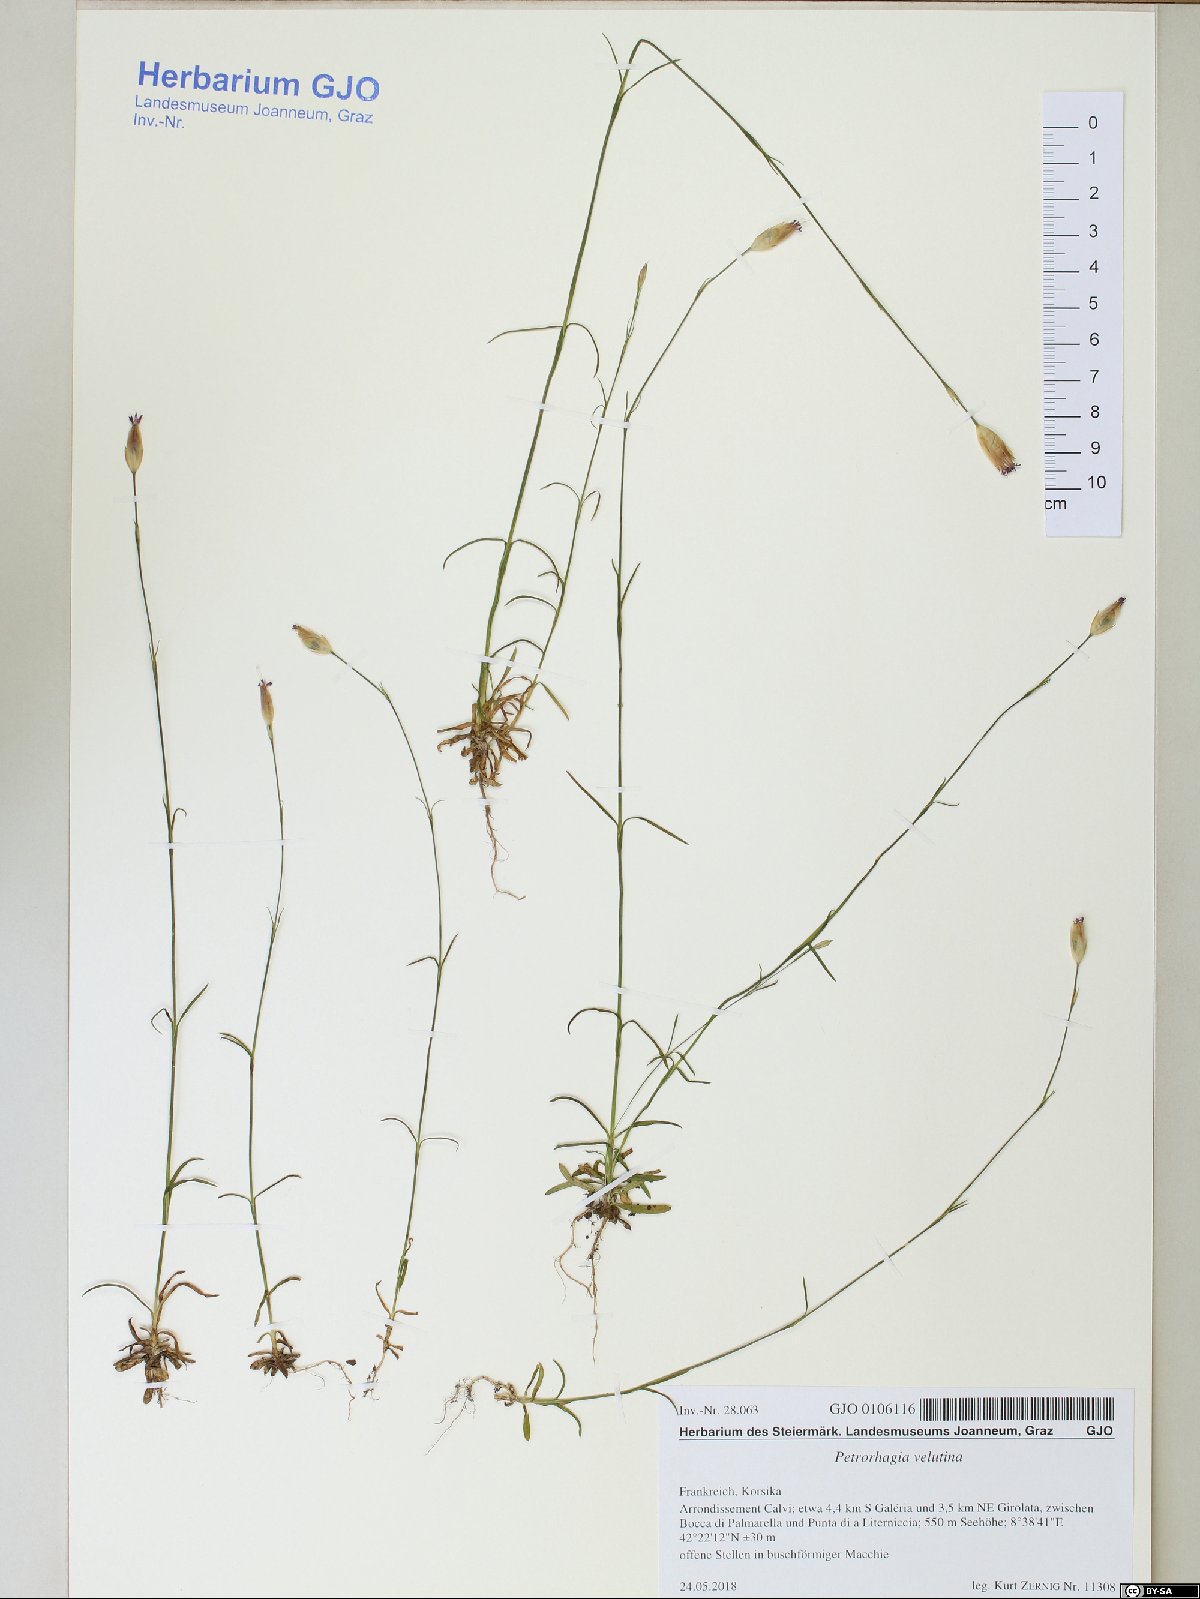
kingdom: Plantae
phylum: Tracheophyta
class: Magnoliopsida
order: Caryophyllales
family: Caryophyllaceae
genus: Petrorhagia
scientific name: Petrorhagia dubia
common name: Hairypink
